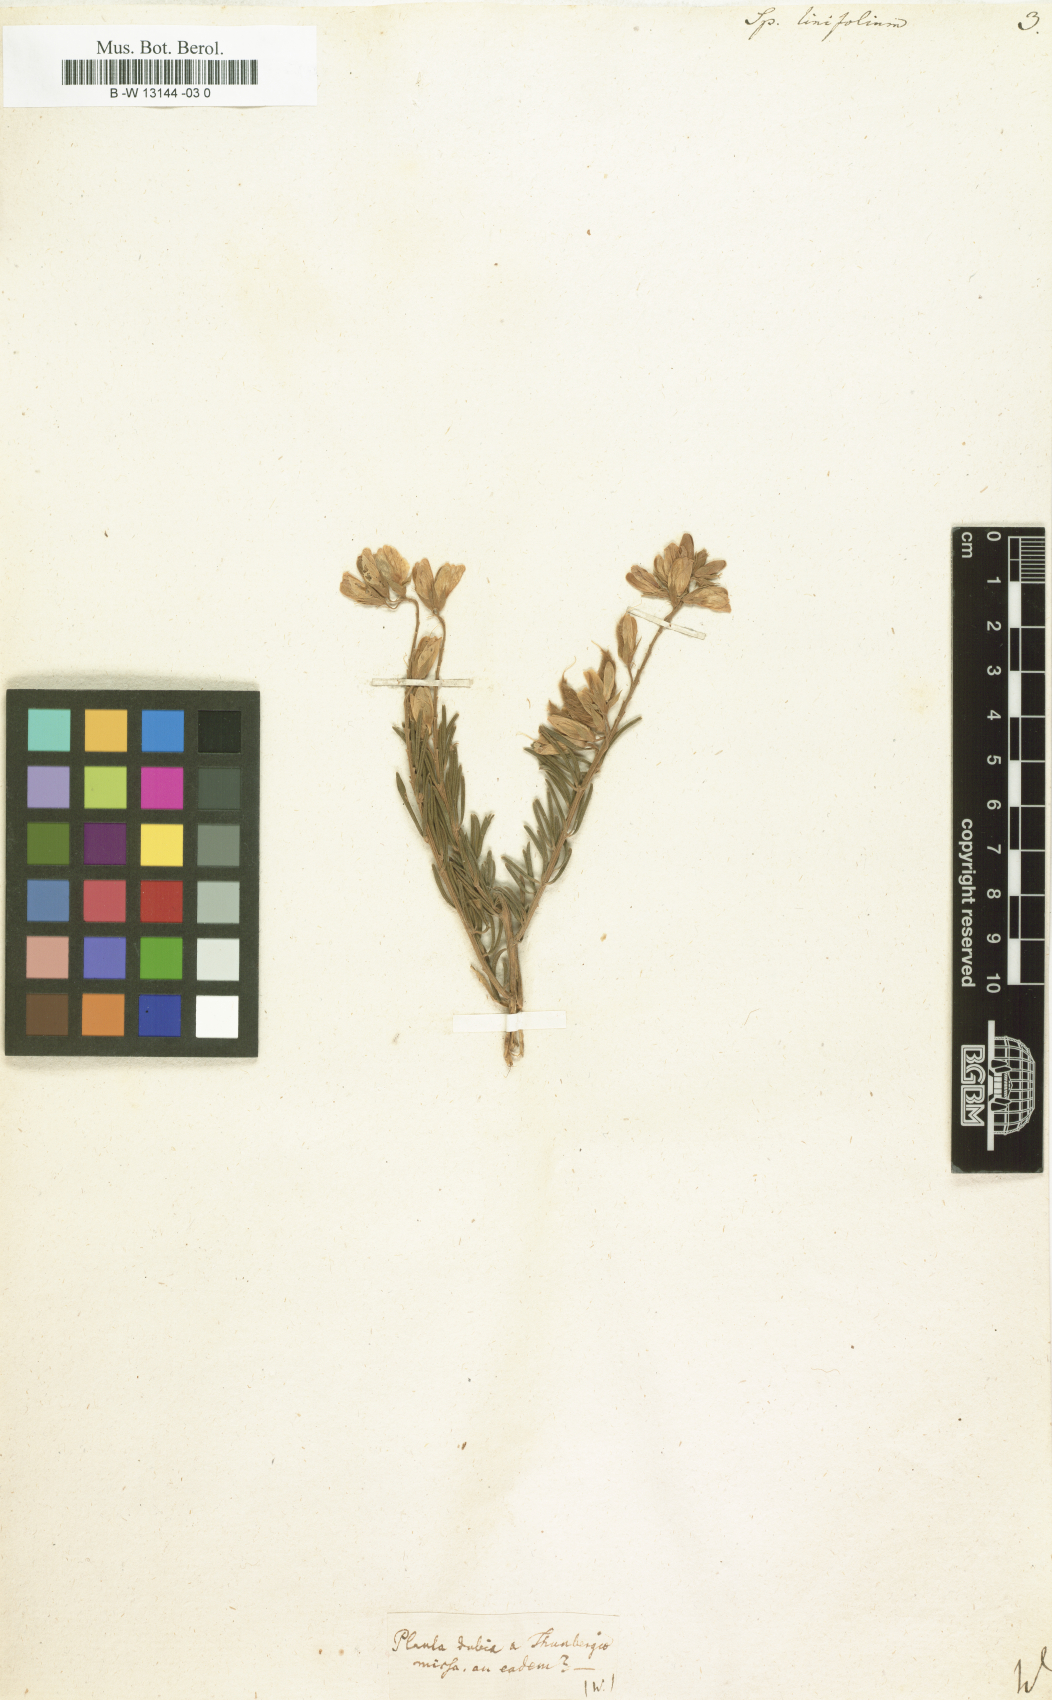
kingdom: Plantae
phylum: Tracheophyta
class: Magnoliopsida
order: Fabales
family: Fabaceae
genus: Genista
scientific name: Genista linifolia
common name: Mediterranean broom
